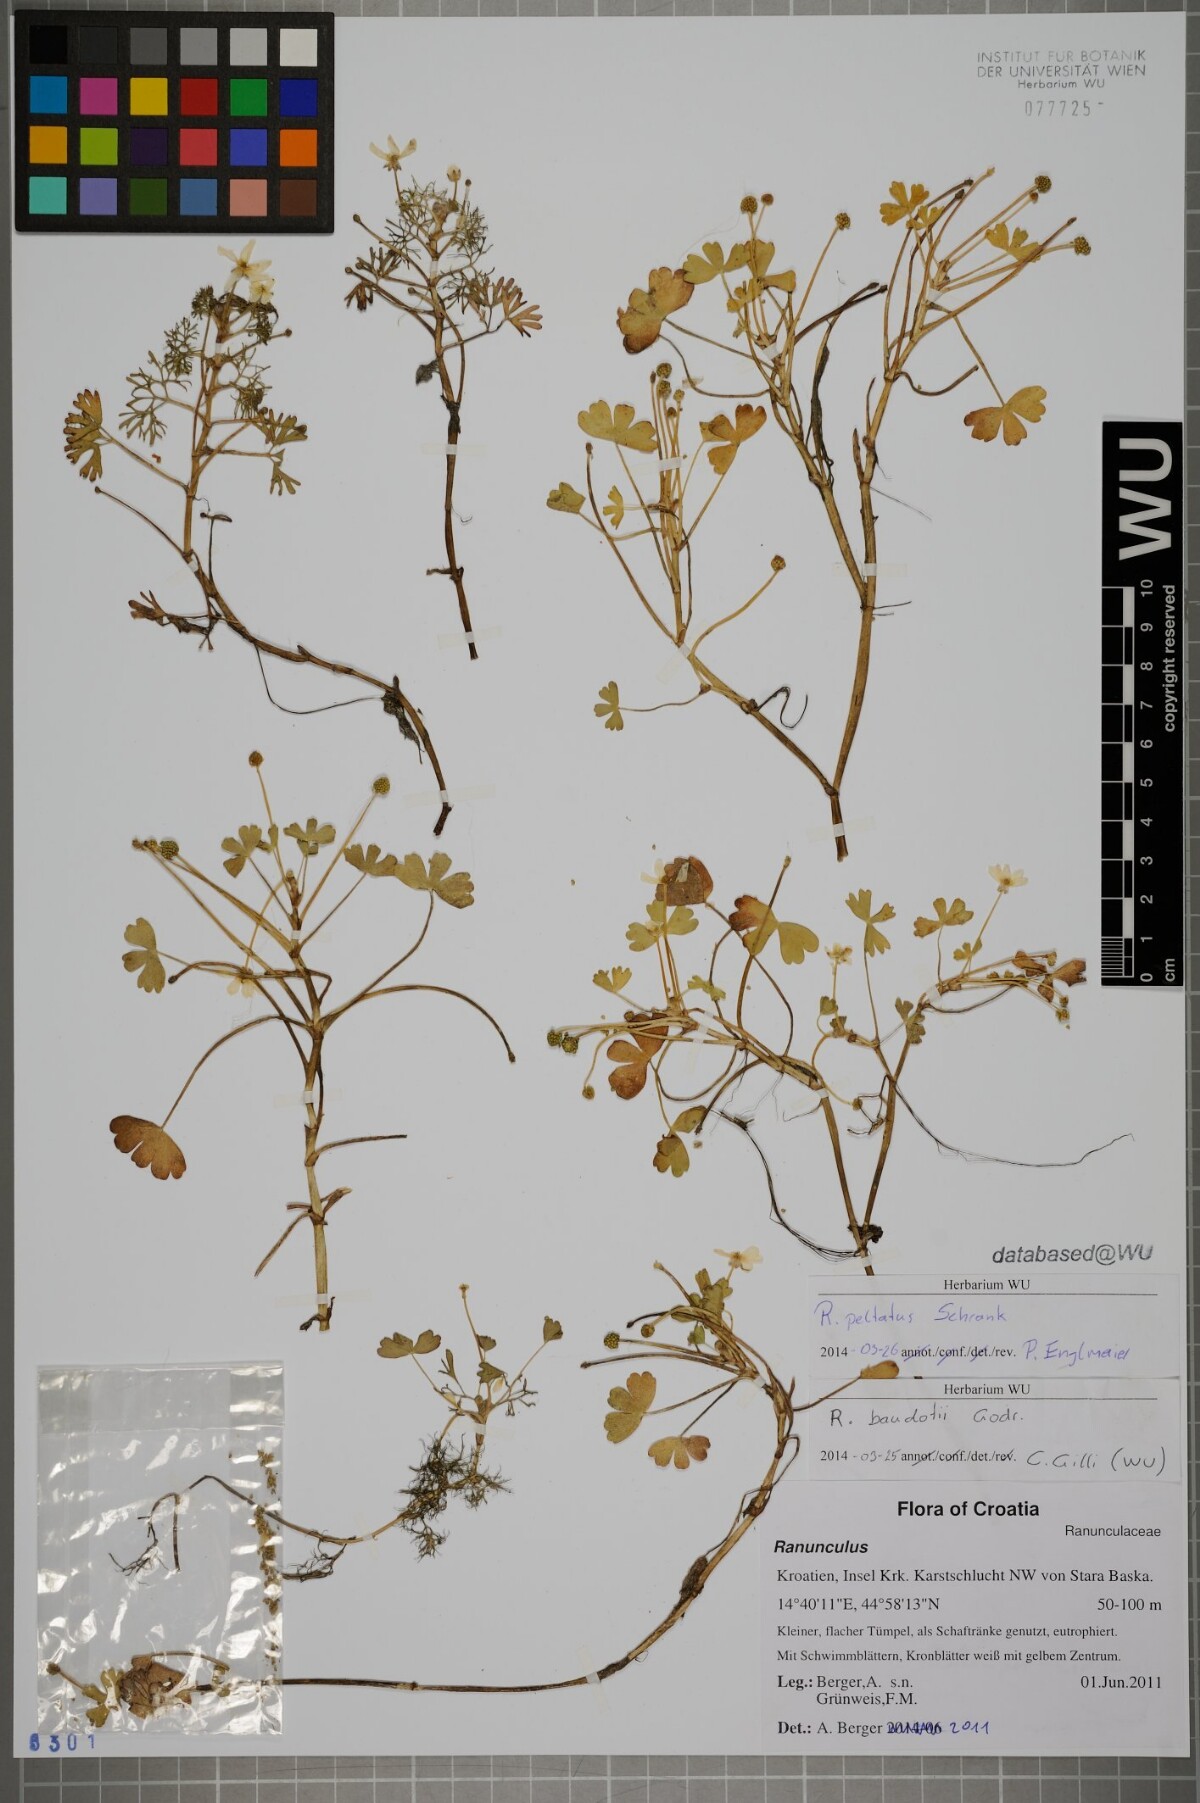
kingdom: Plantae
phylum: Tracheophyta
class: Magnoliopsida
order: Ranunculales
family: Ranunculaceae
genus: Ranunculus
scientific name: Ranunculus peltatus
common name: Pond water-crowfoot
